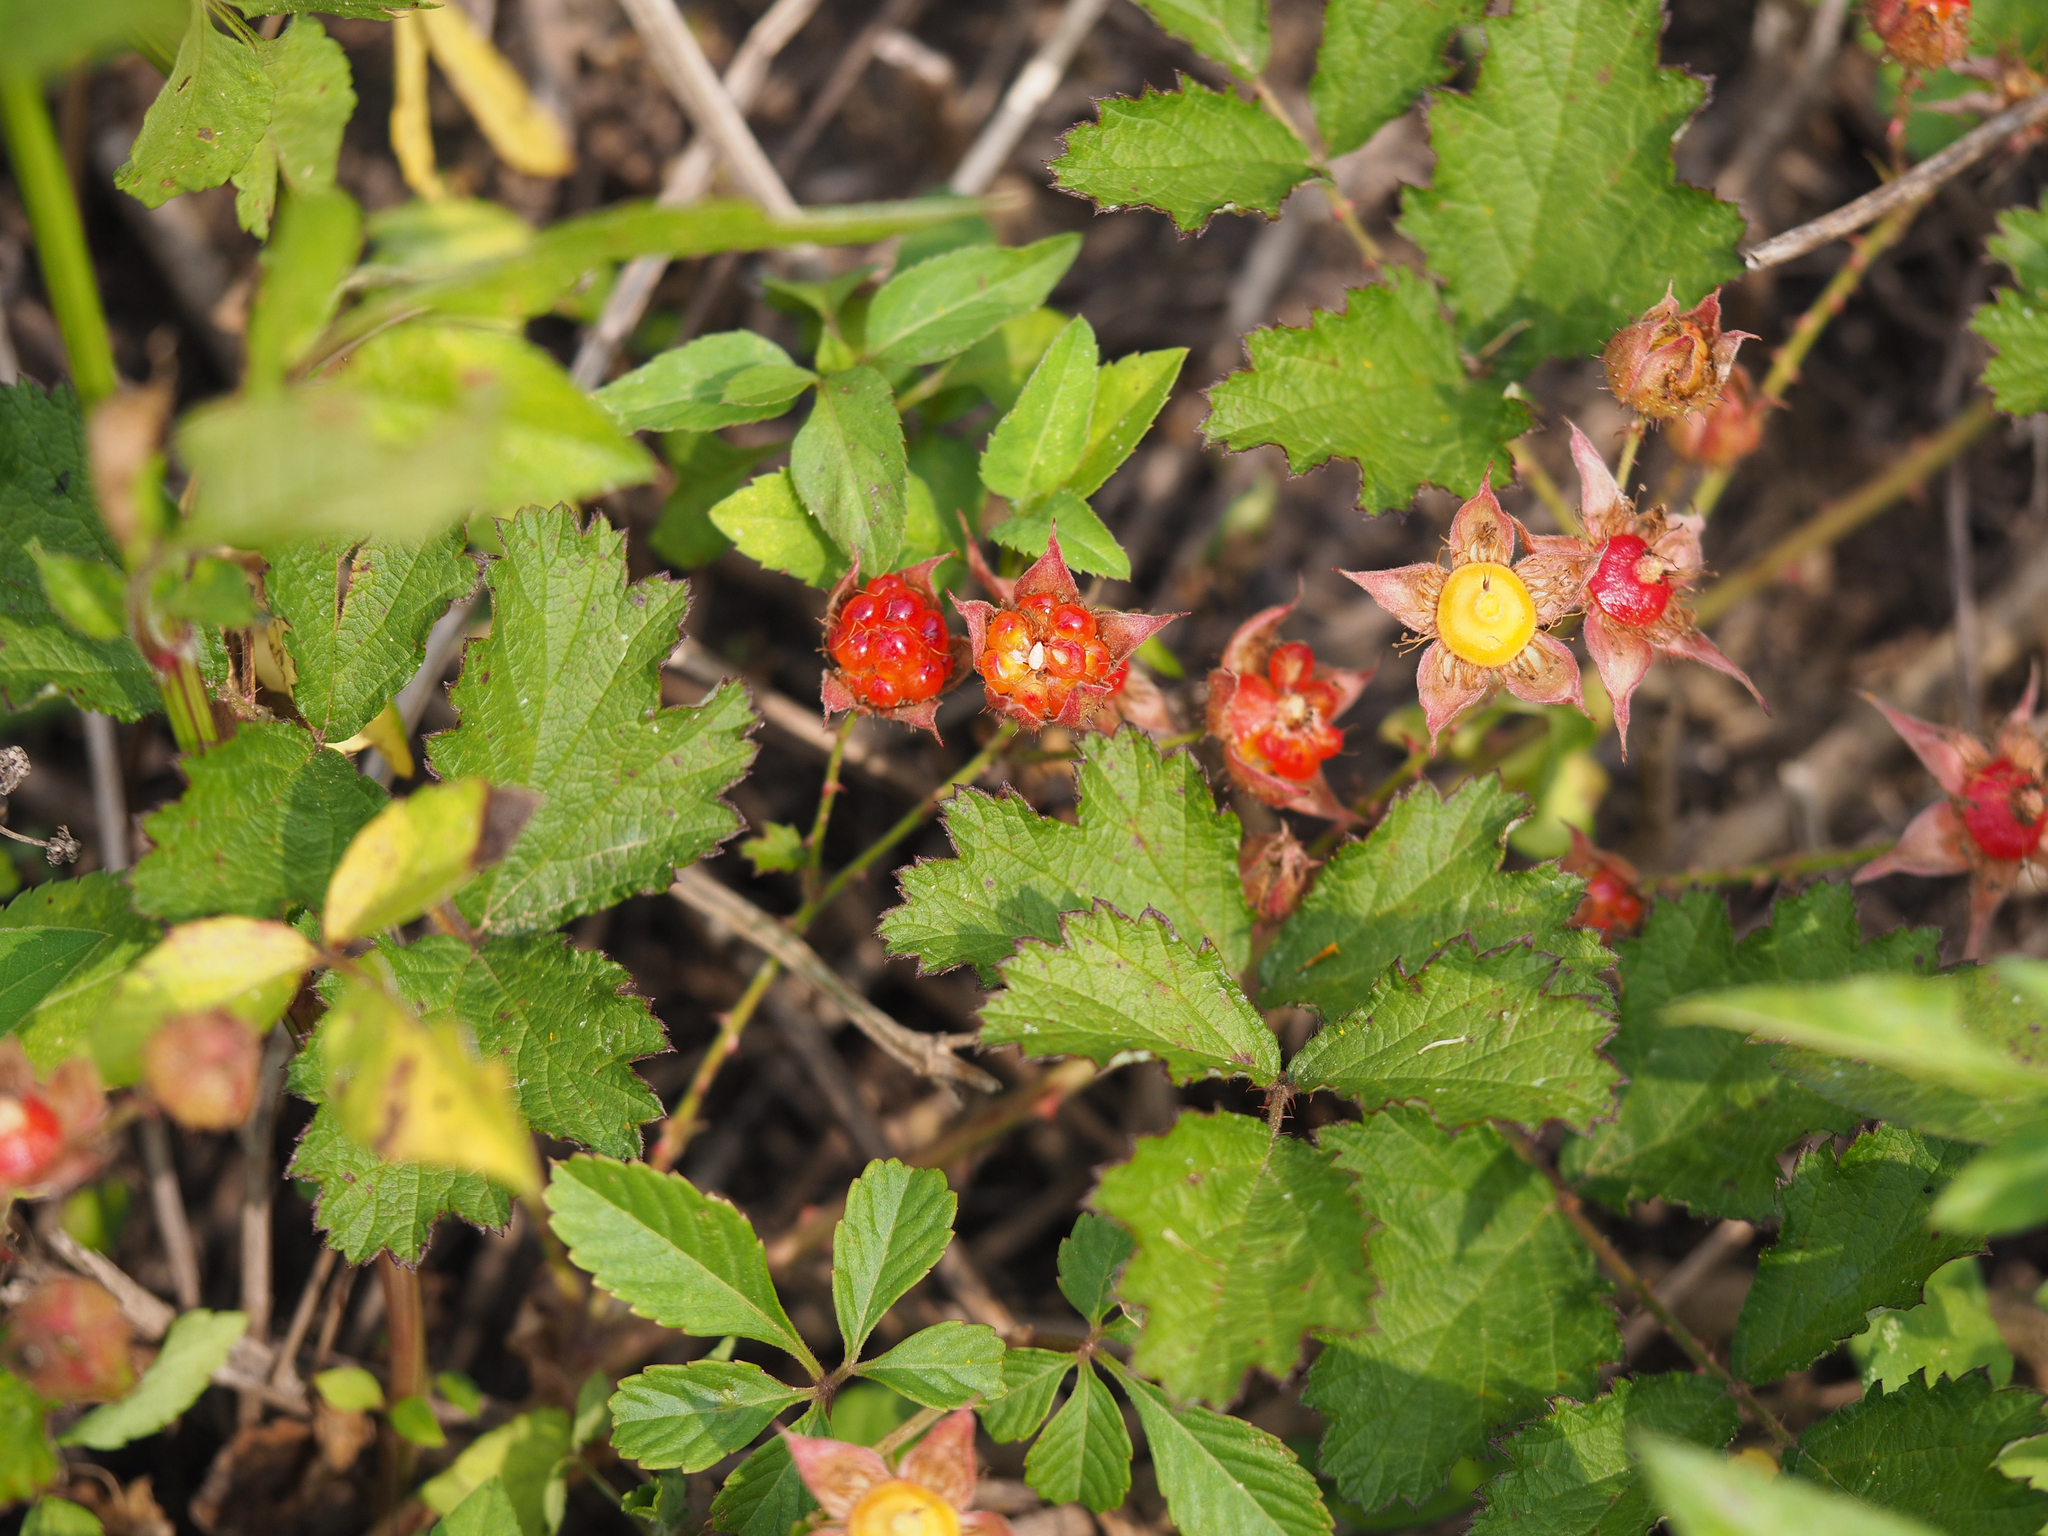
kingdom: Plantae
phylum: Tracheophyta
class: Magnoliopsida
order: Rosales
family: Rosaceae
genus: Rubus
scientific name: Rubus parvifolius
